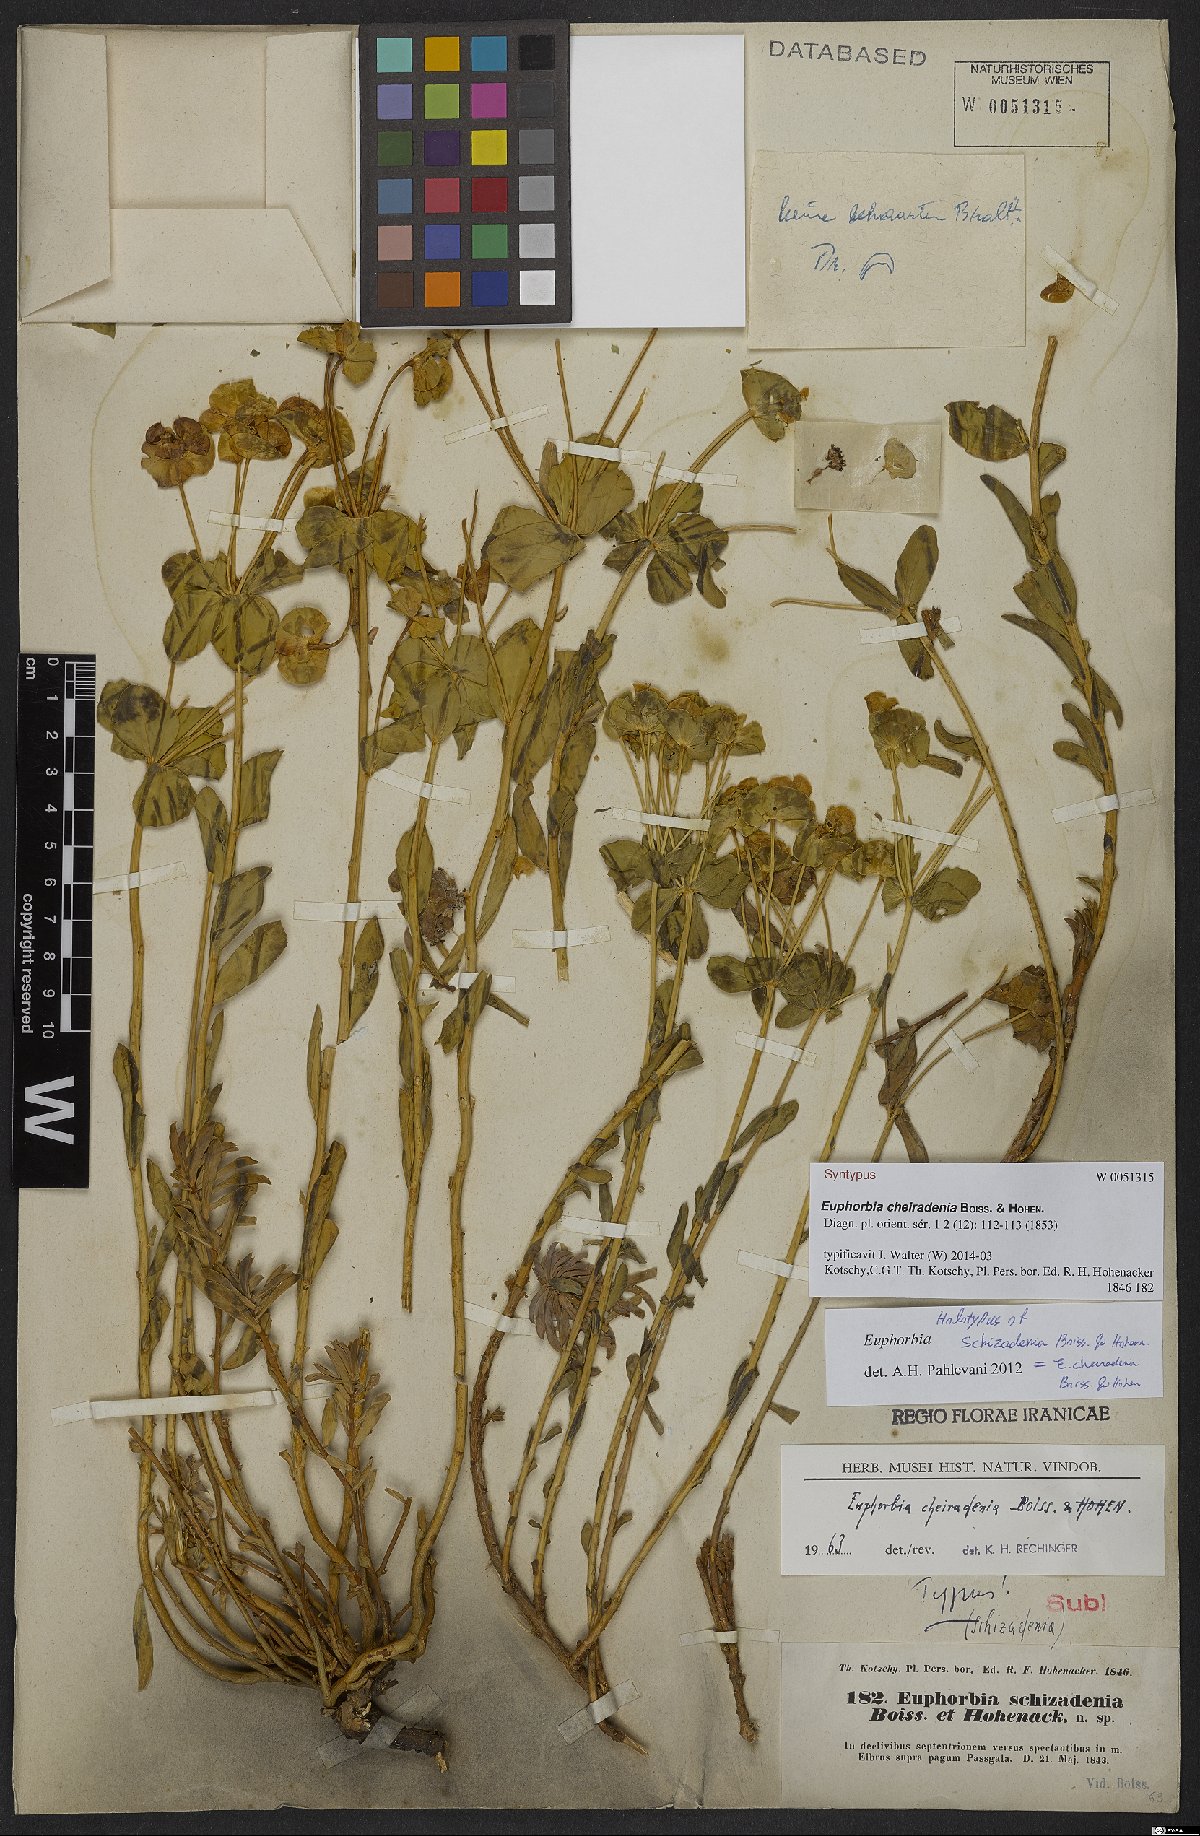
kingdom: Plantae
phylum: Tracheophyta
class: Magnoliopsida
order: Malpighiales
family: Euphorbiaceae
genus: Euphorbia
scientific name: Euphorbia cheiradenia
